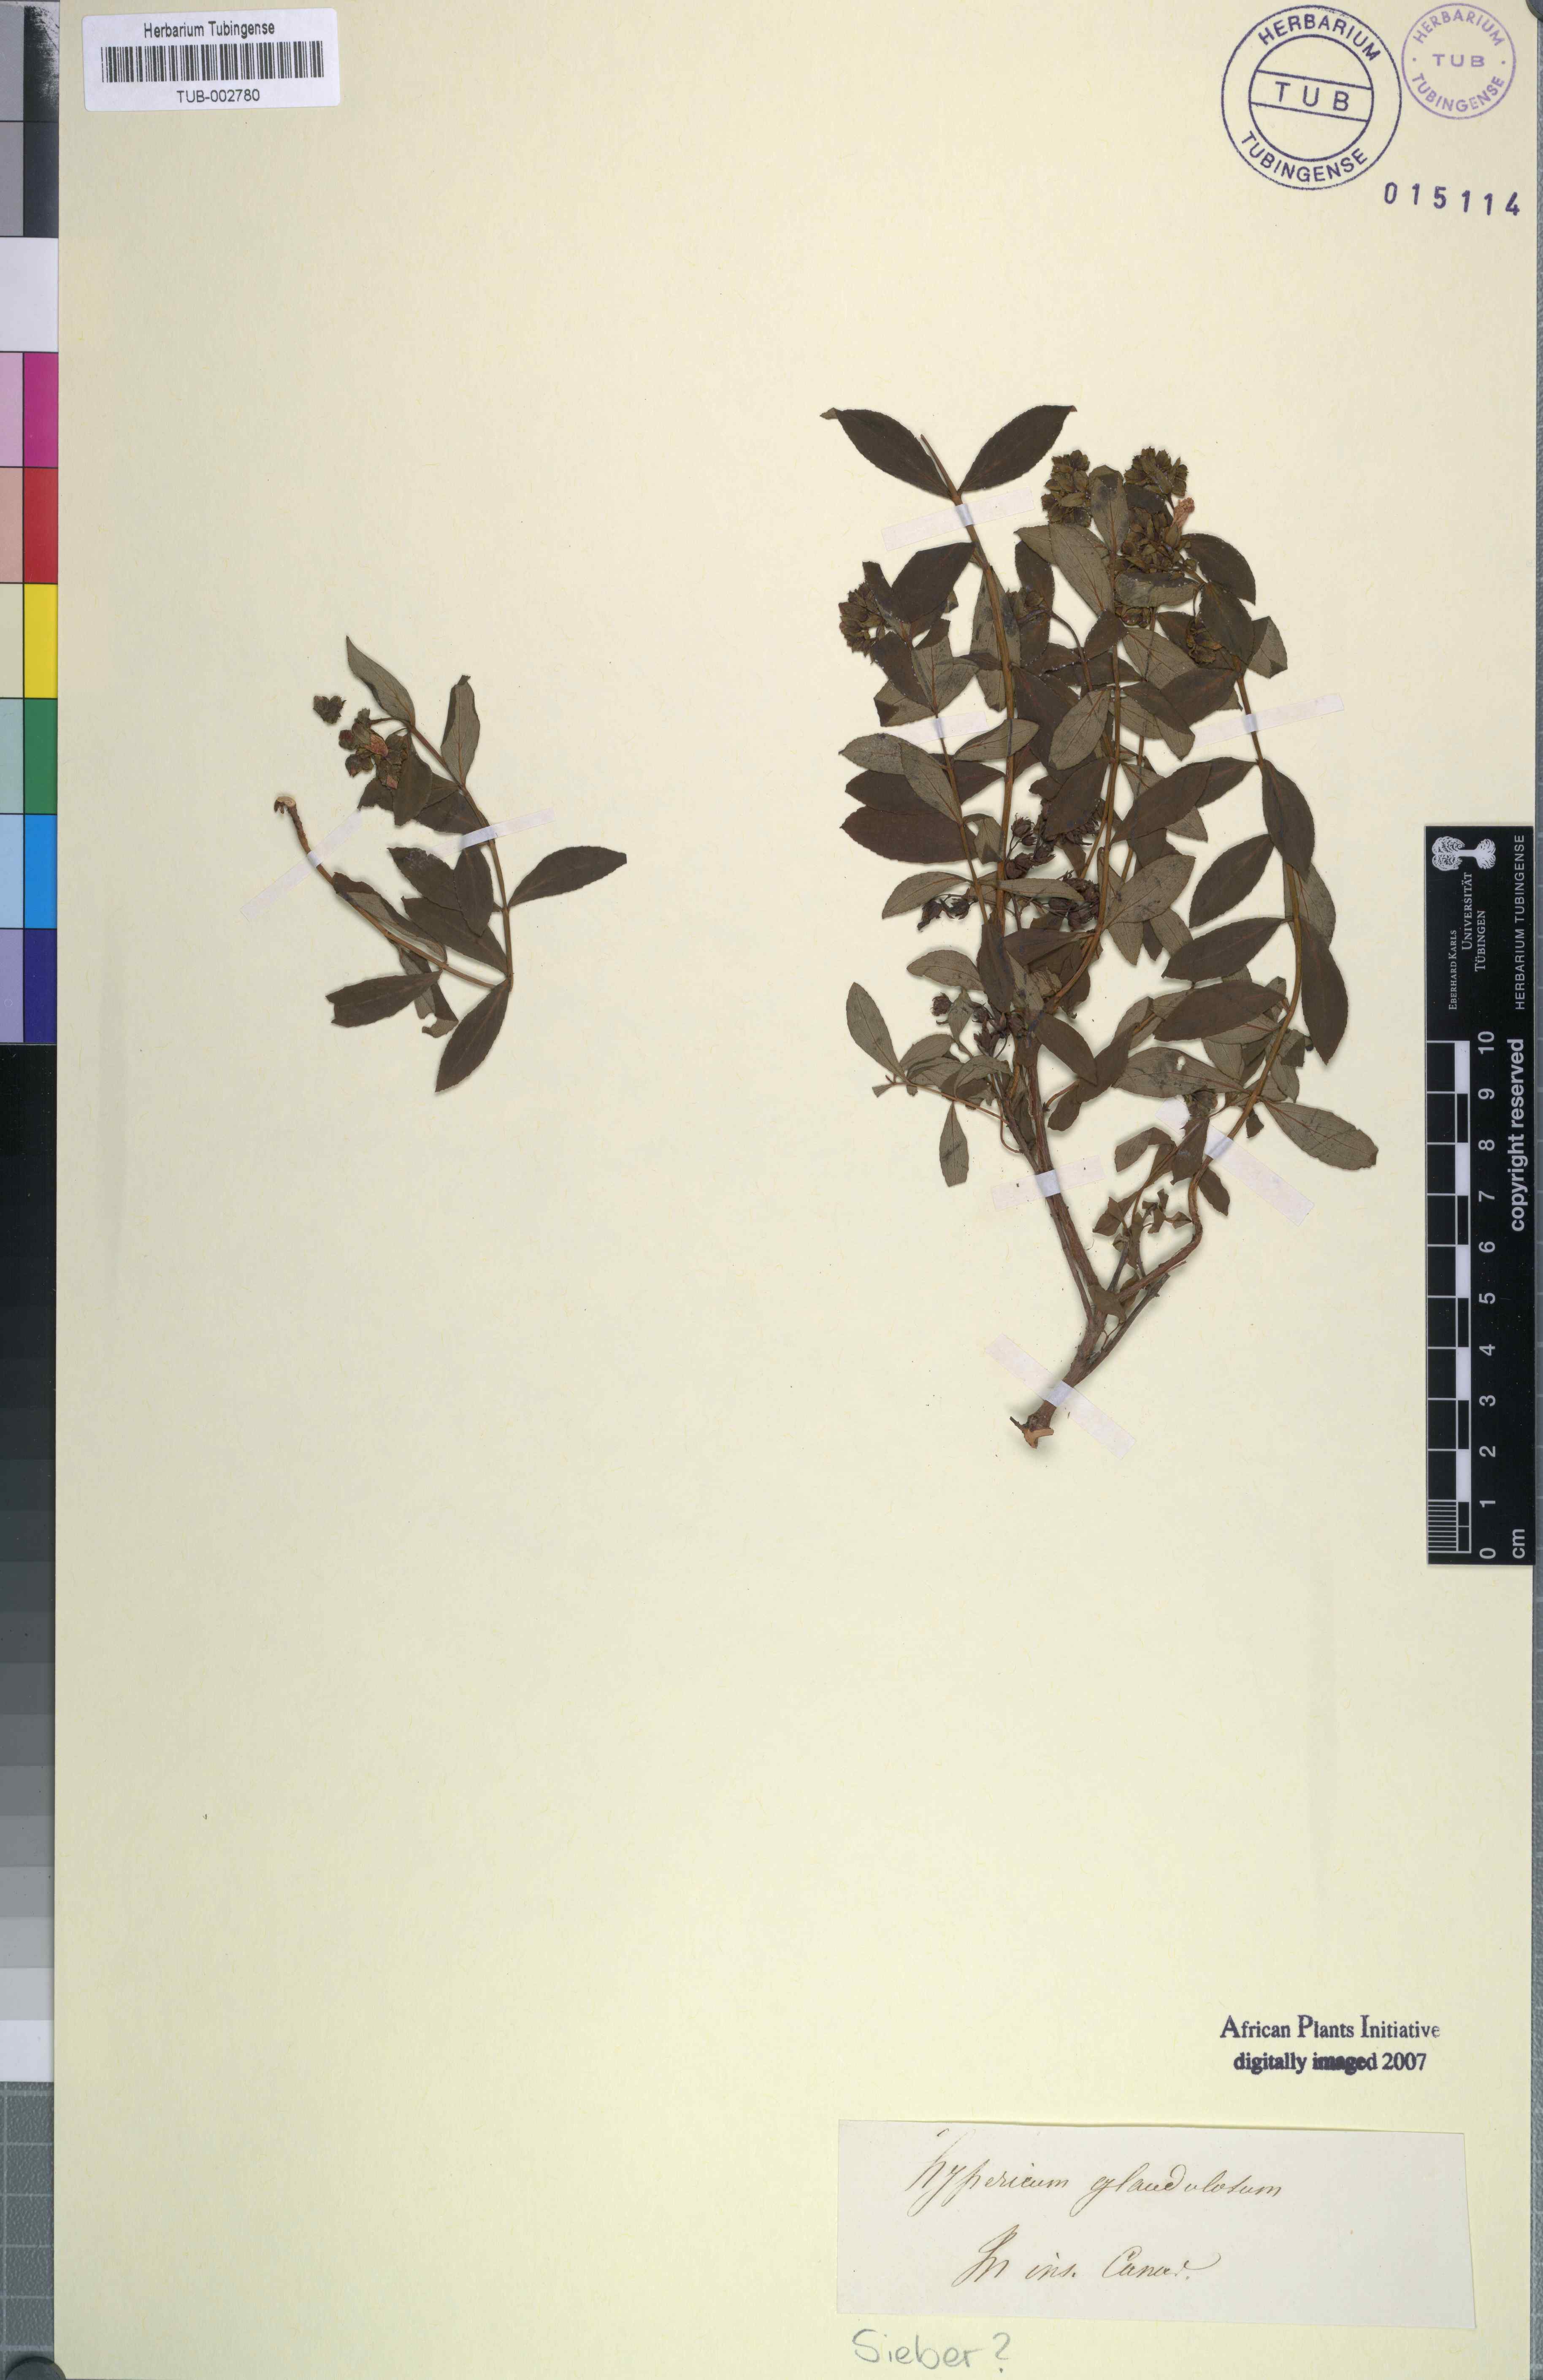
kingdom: Plantae
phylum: Tracheophyta
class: Magnoliopsida
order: Malpighiales
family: Hypericaceae
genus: Hypericum
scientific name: Hypericum glandulosum
